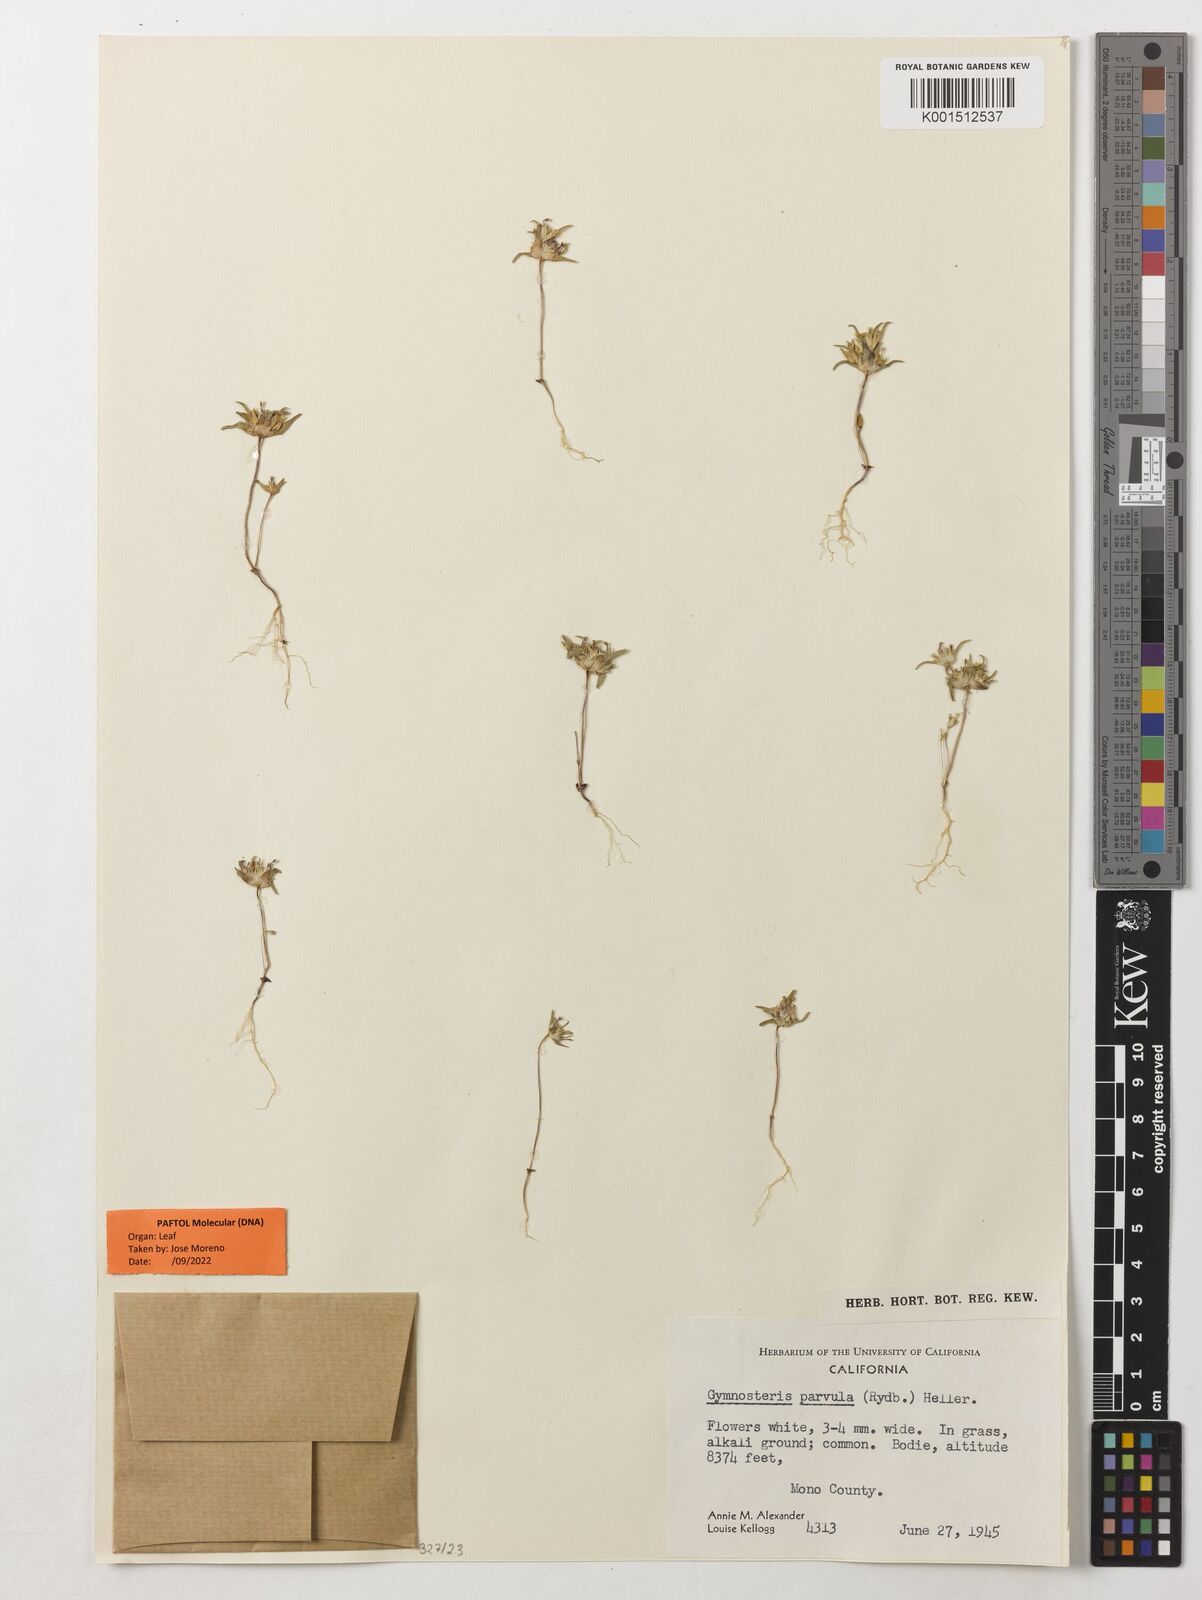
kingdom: Plantae
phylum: Tracheophyta
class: Magnoliopsida
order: Ericales
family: Polemoniaceae
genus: Gymnosteris
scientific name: Gymnosteris parvula
